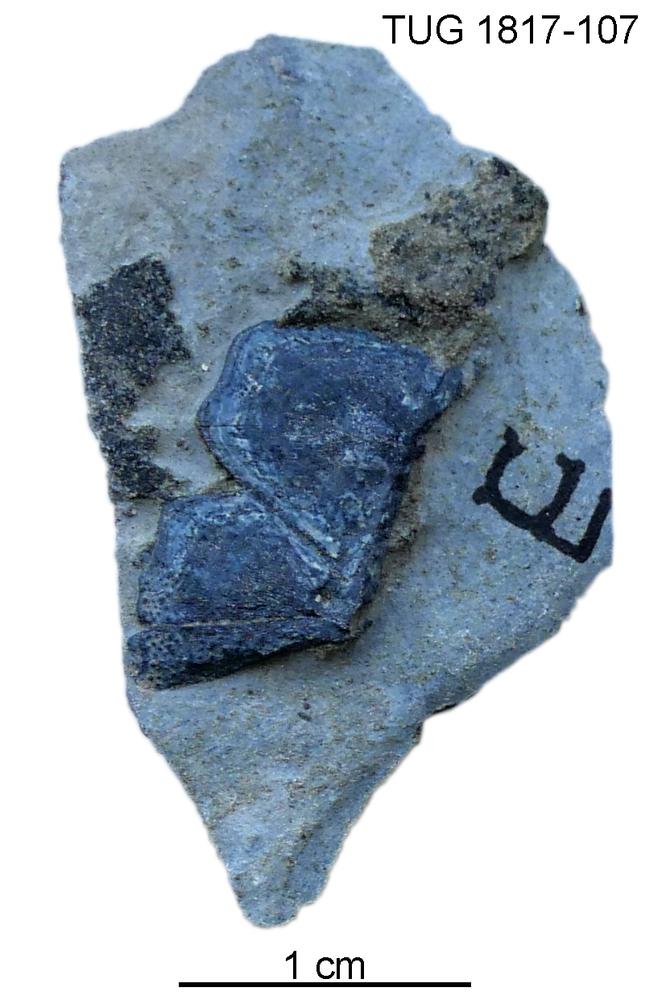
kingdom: Animalia
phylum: Chordata
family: Coccosteidae
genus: Millerosteus
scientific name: Millerosteus minor
